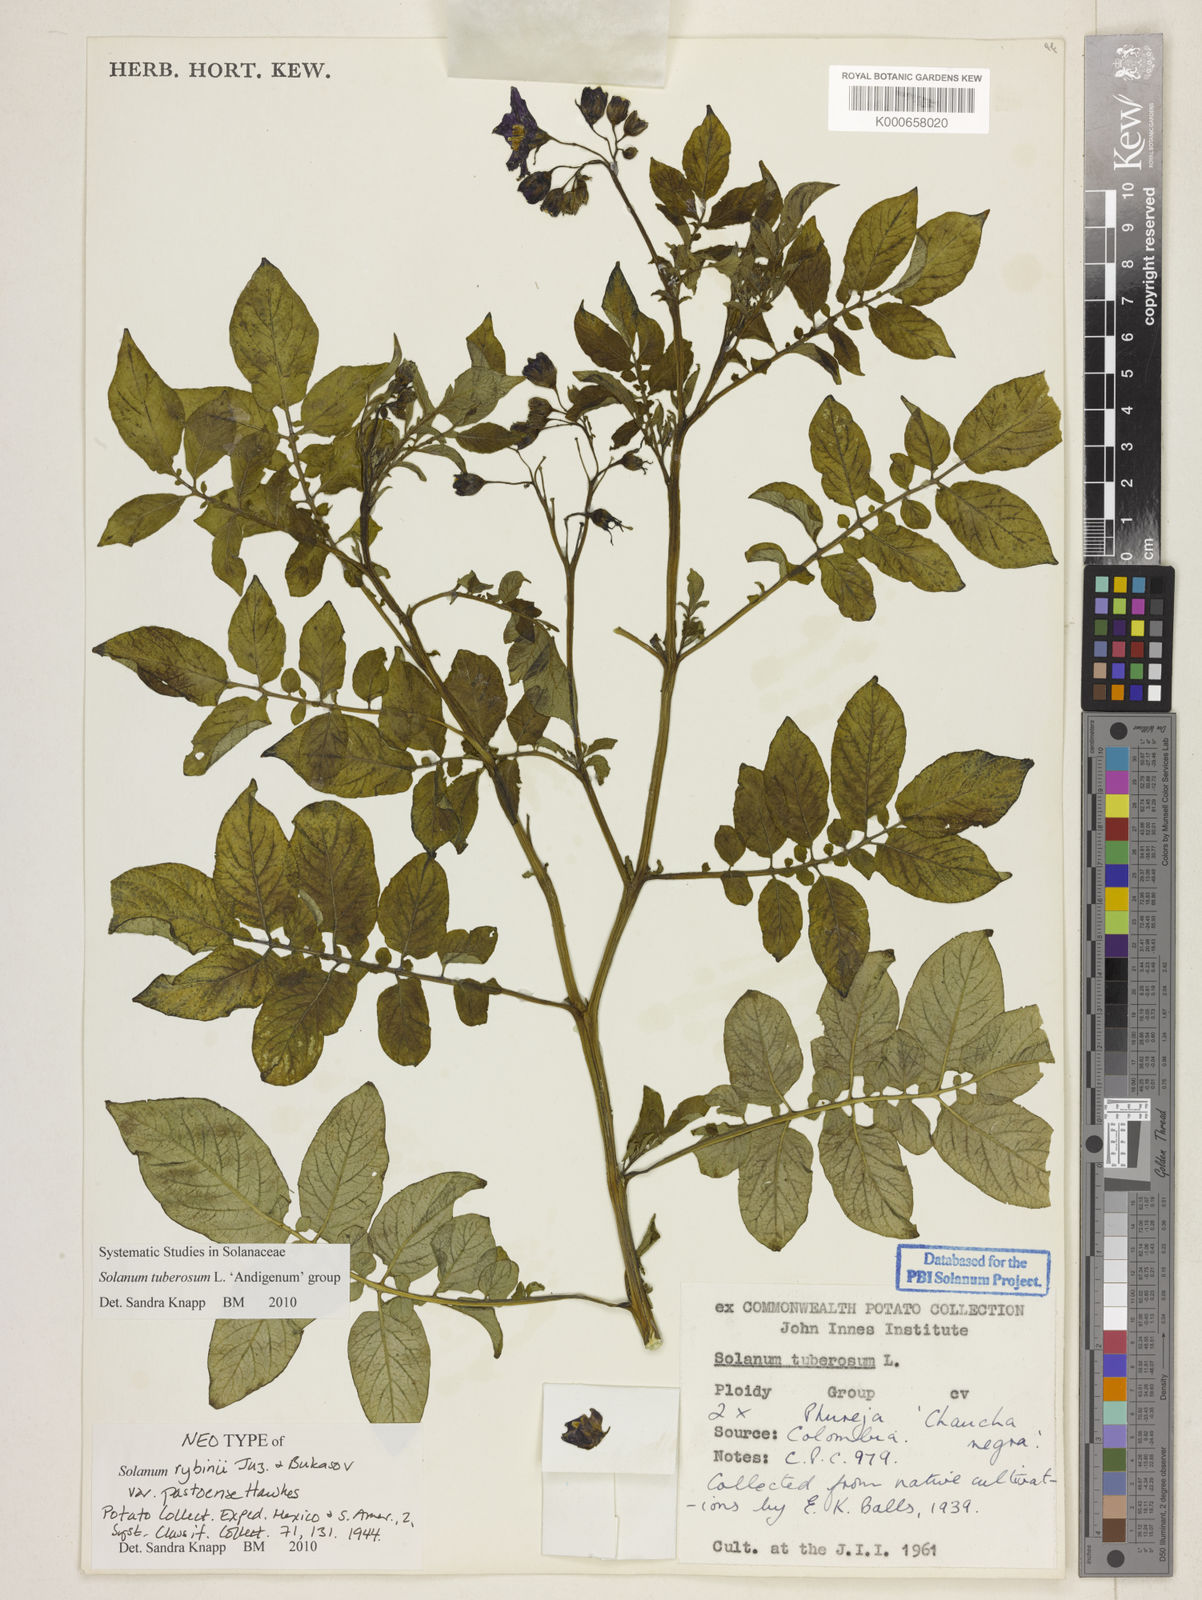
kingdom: Plantae
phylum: Tracheophyta
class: Magnoliopsida
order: Solanales
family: Solanaceae
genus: Solanum
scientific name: Solanum tuberosum
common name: Potato
